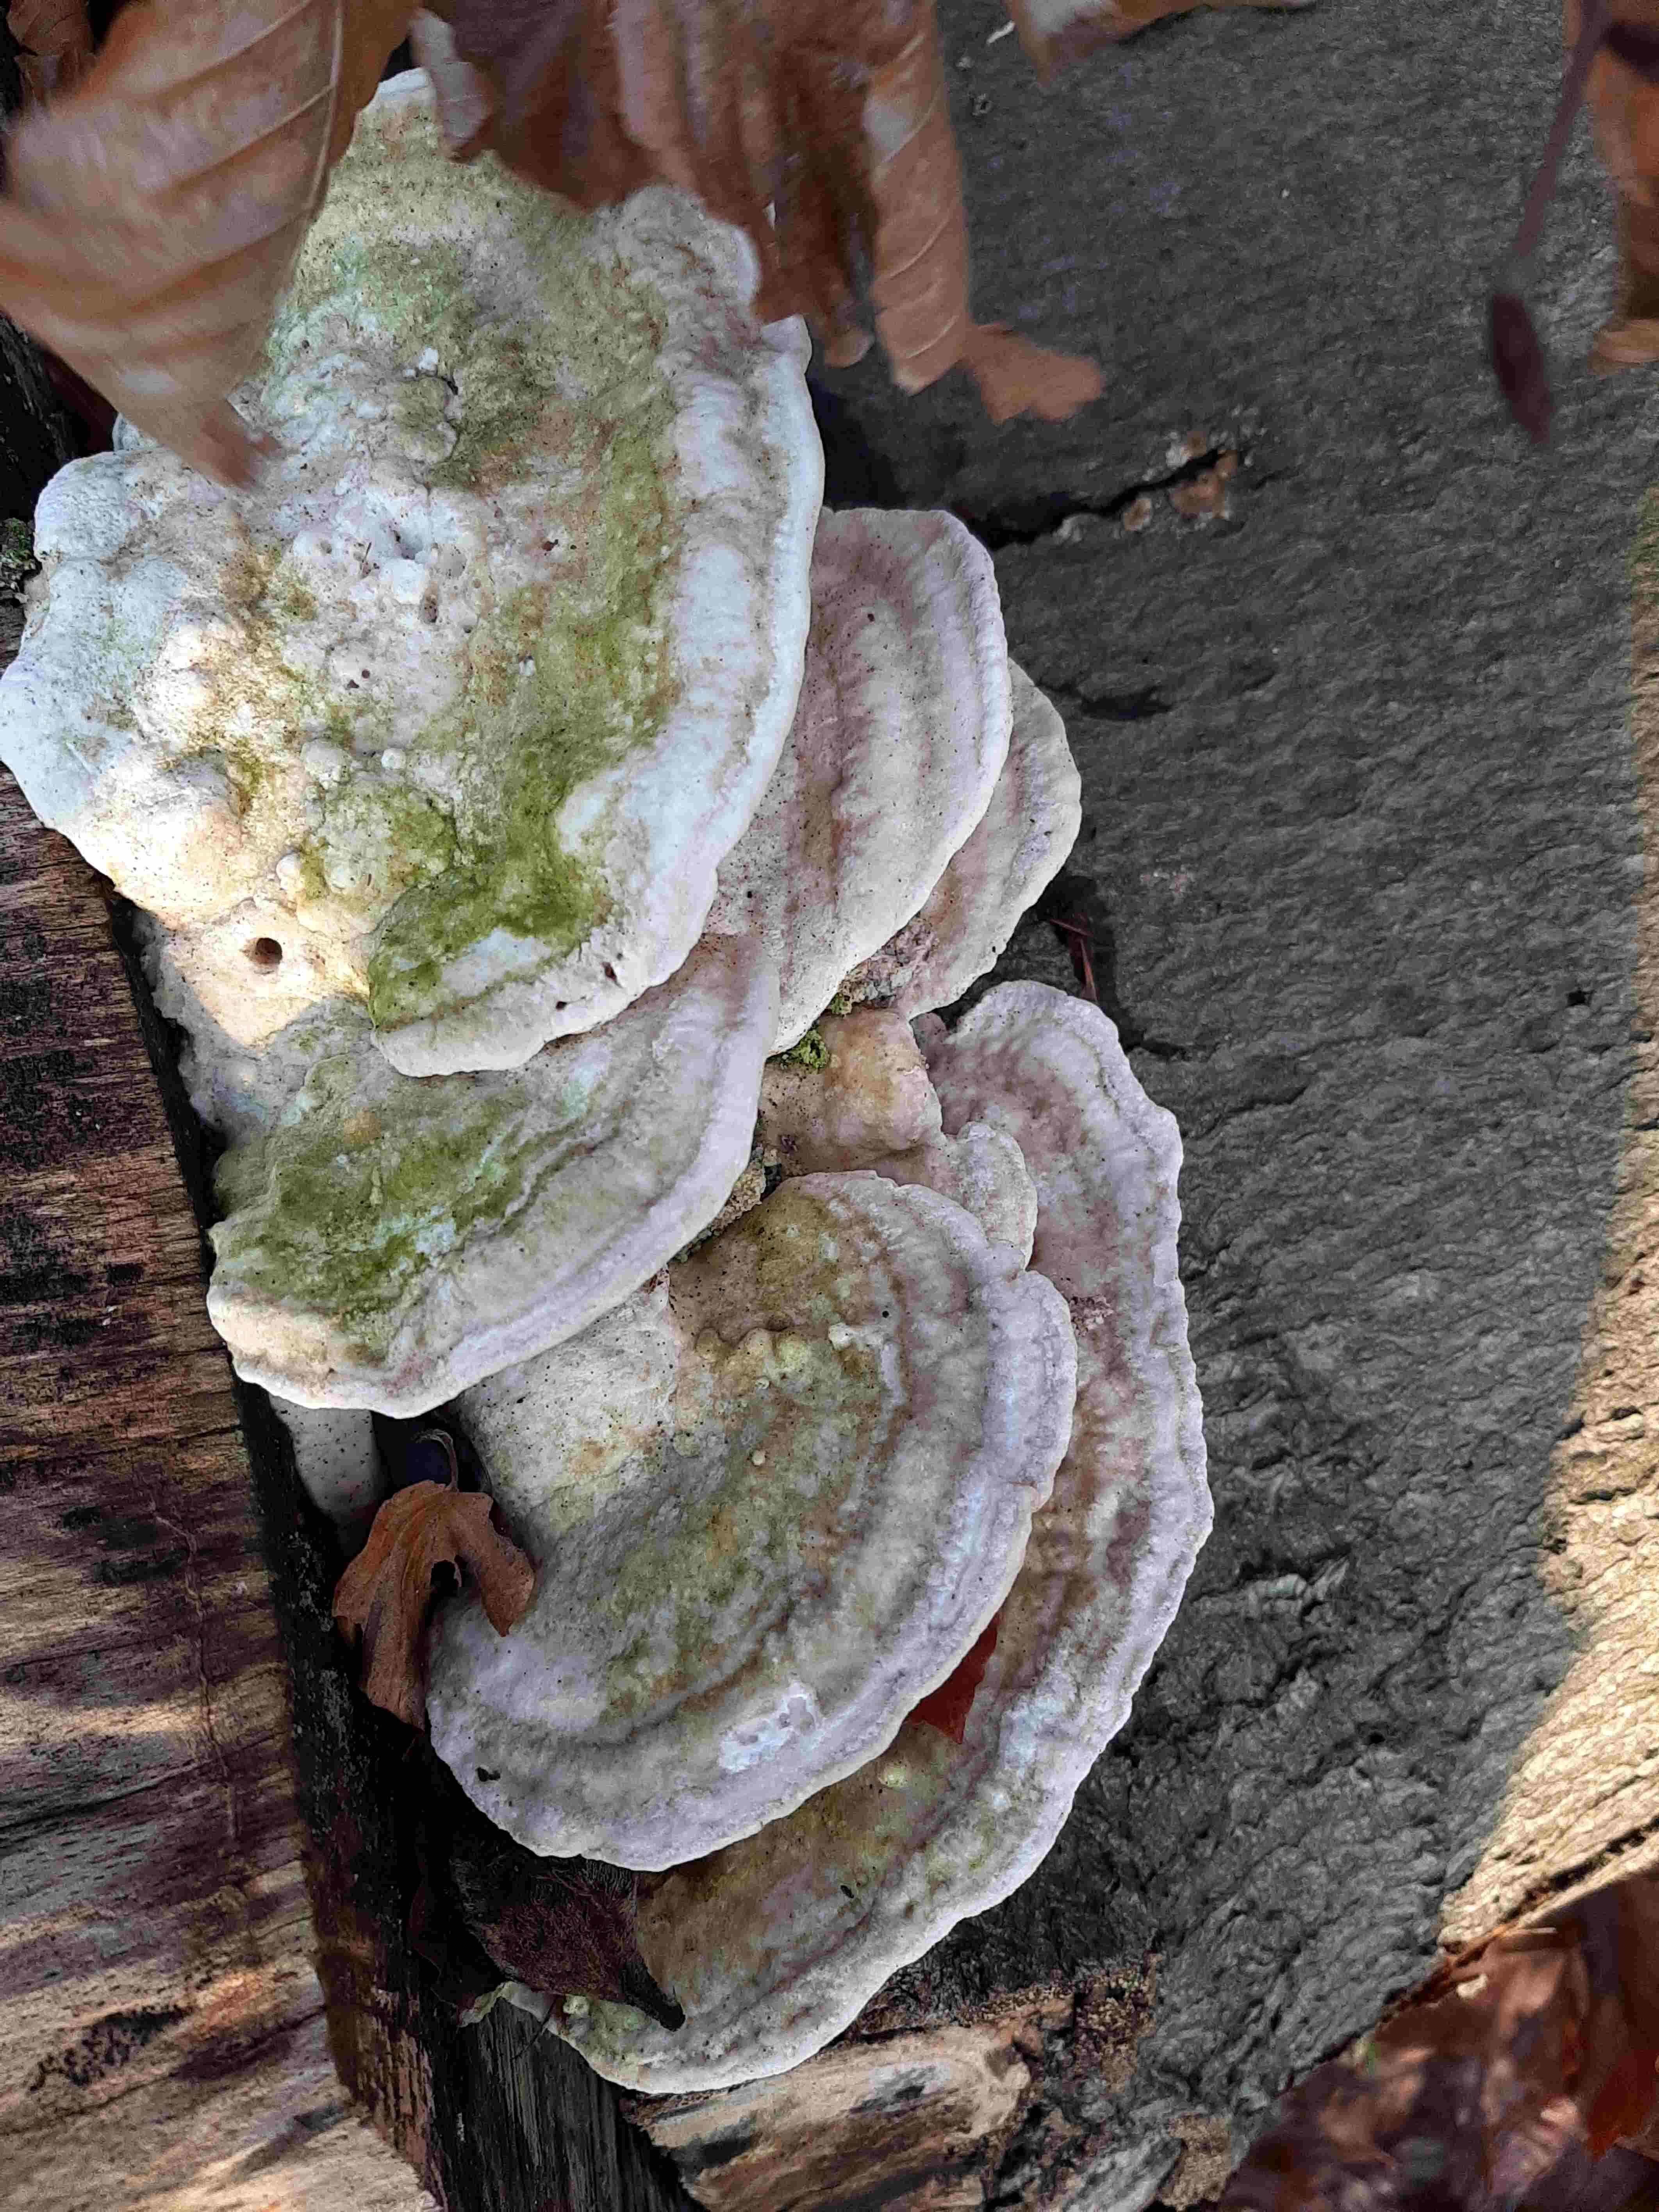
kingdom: Fungi
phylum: Basidiomycota
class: Agaricomycetes
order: Polyporales
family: Polyporaceae
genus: Trametes
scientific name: Trametes gibbosa
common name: puklet læderporesvamp
